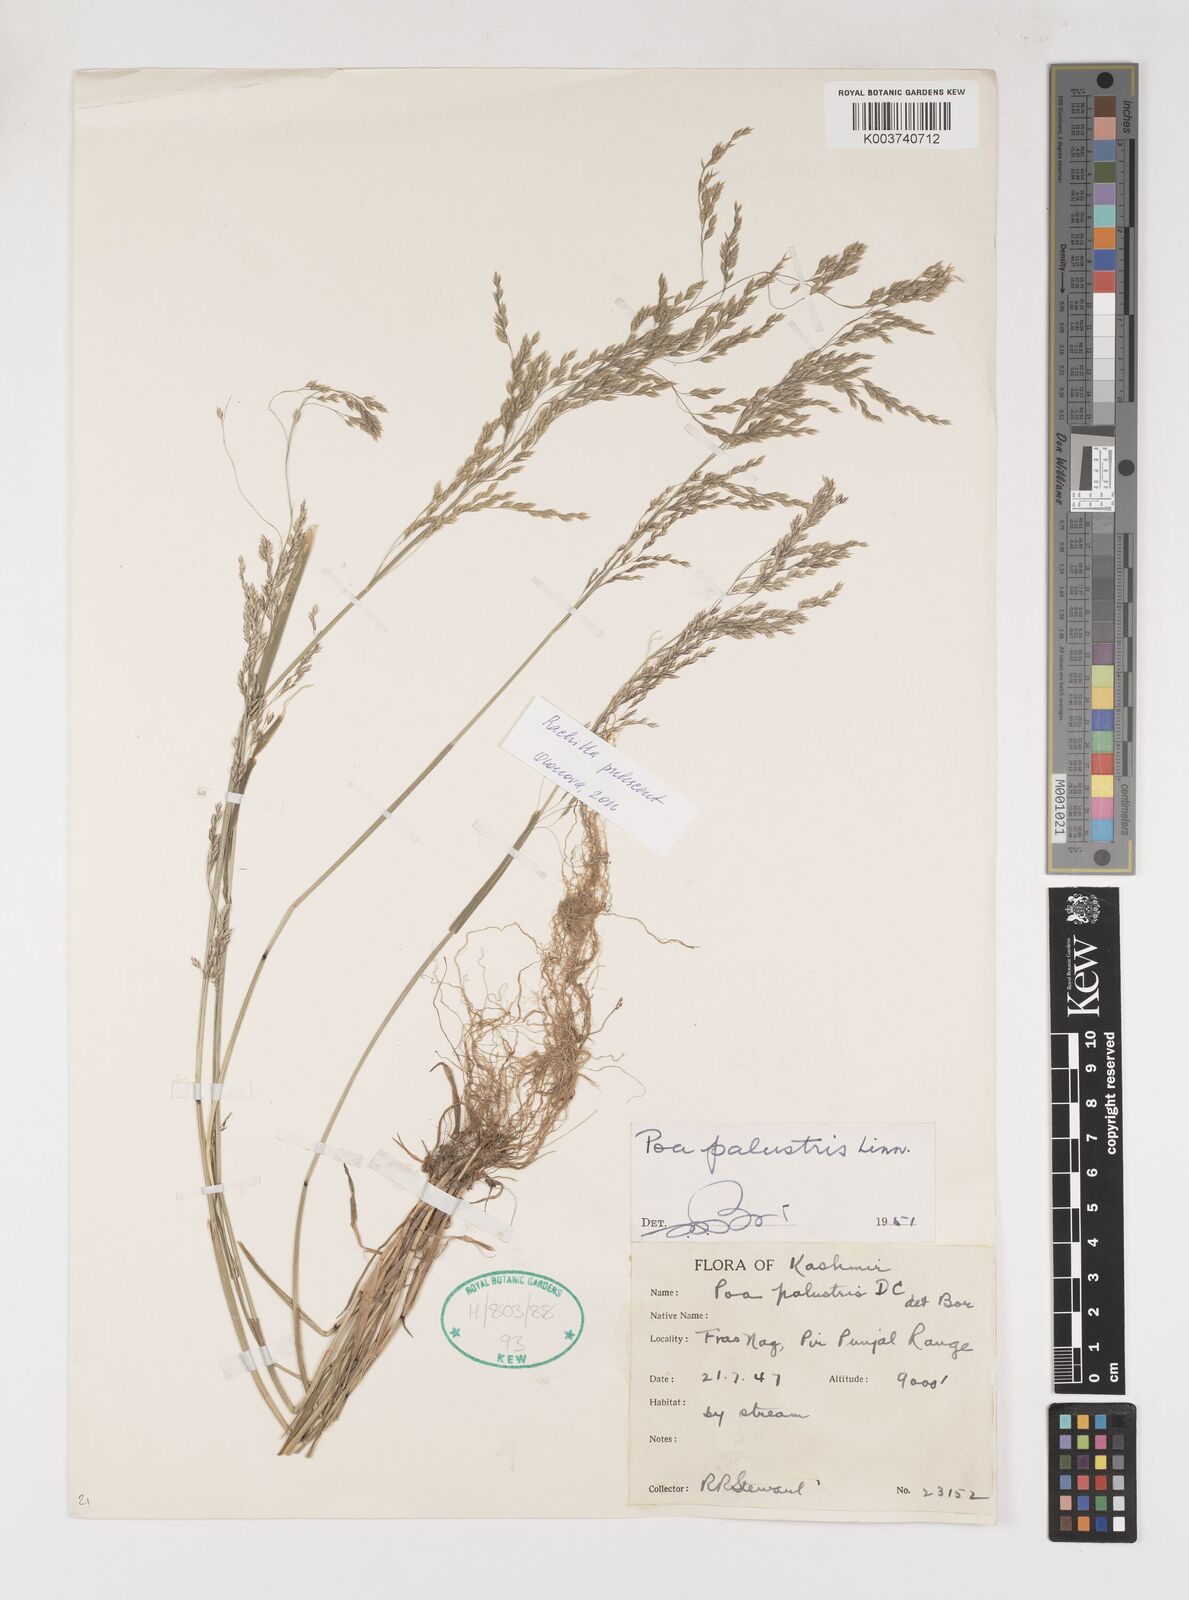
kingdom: Plantae
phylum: Tracheophyta
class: Liliopsida
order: Poales
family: Poaceae
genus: Poa
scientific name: Poa palustris
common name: Swamp meadow-grass
